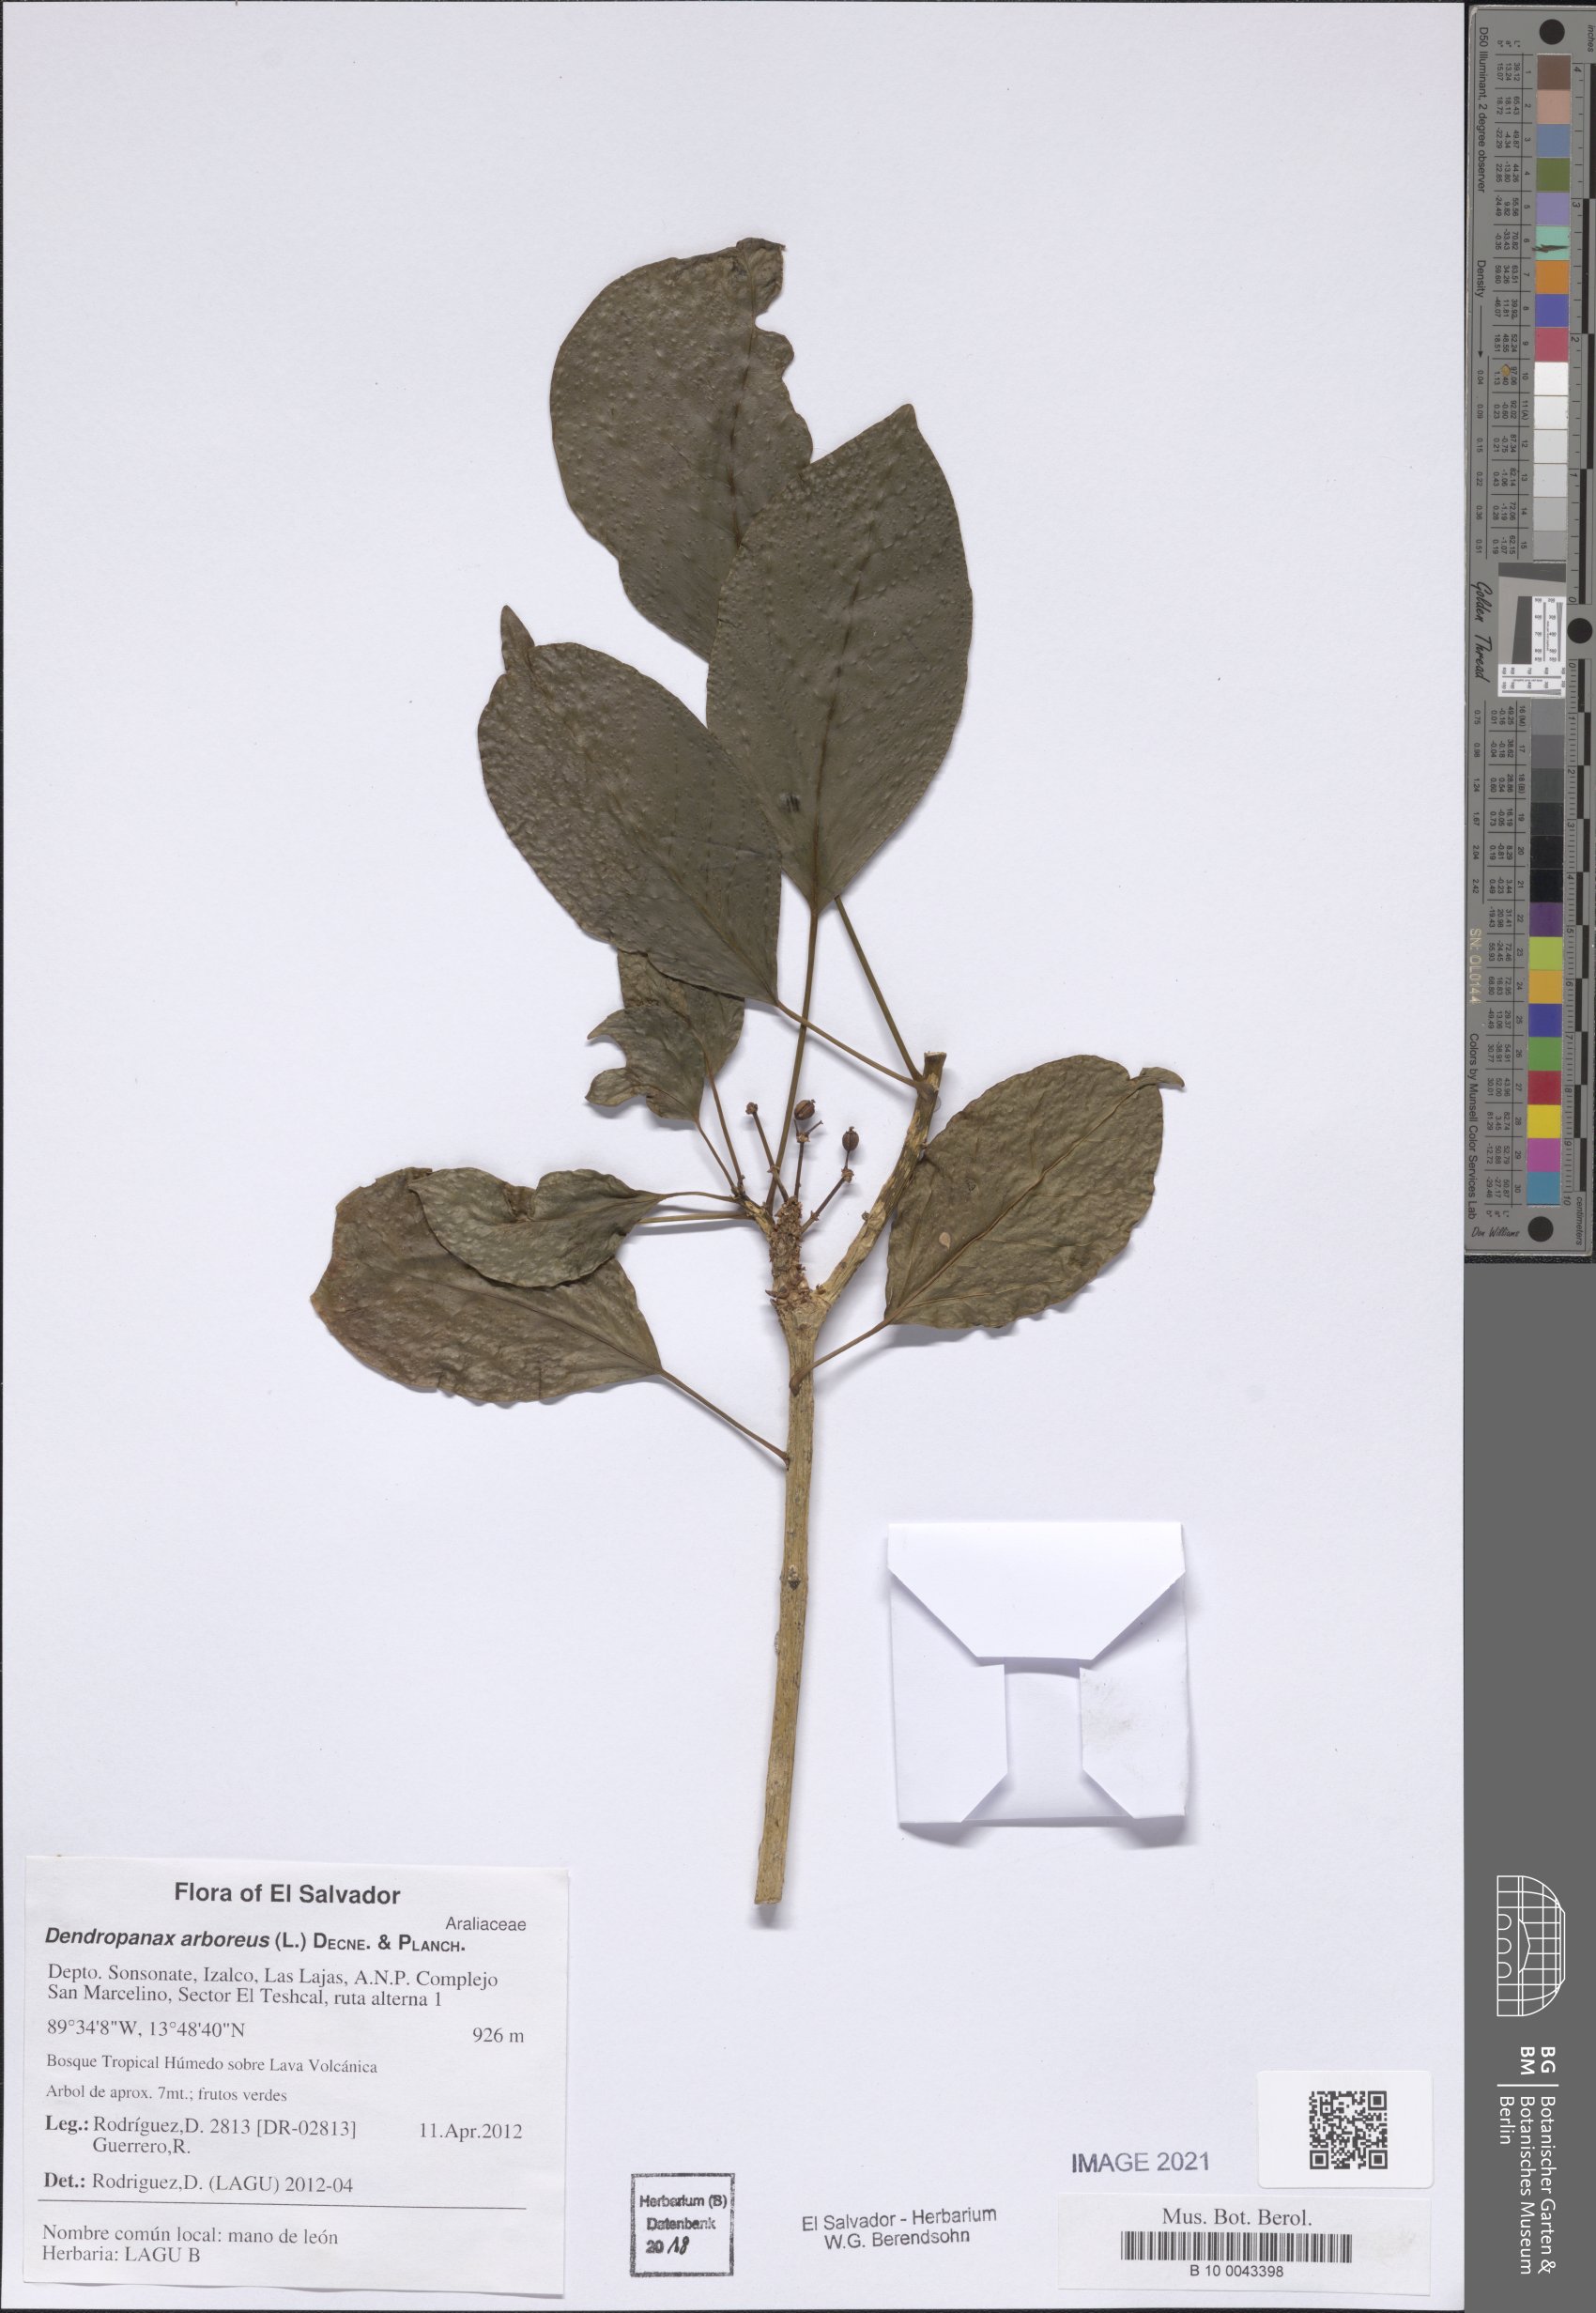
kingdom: Plantae
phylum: Tracheophyta
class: Magnoliopsida
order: Apiales
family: Araliaceae
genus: Dendropanax
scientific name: Dendropanax arboreus
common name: Potato-wood
